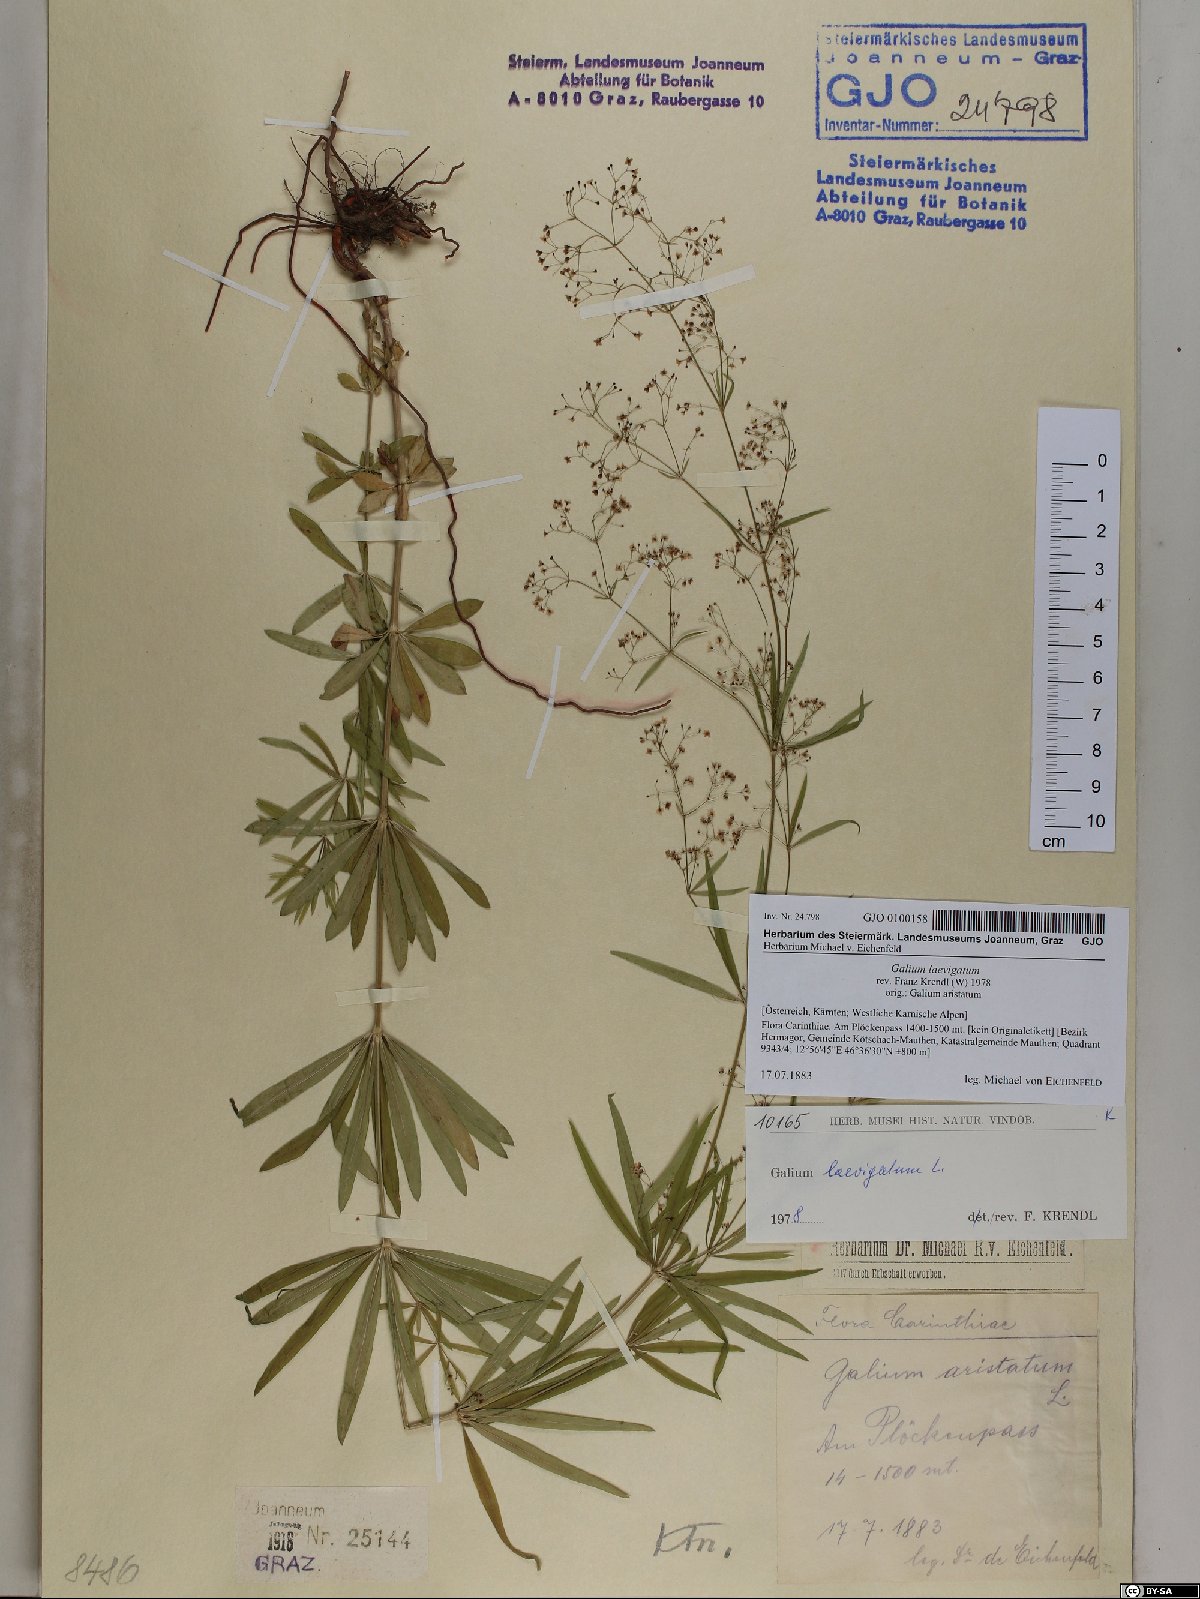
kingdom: Plantae
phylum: Tracheophyta
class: Magnoliopsida
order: Gentianales
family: Rubiaceae
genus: Galium
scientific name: Galium laevigatum
